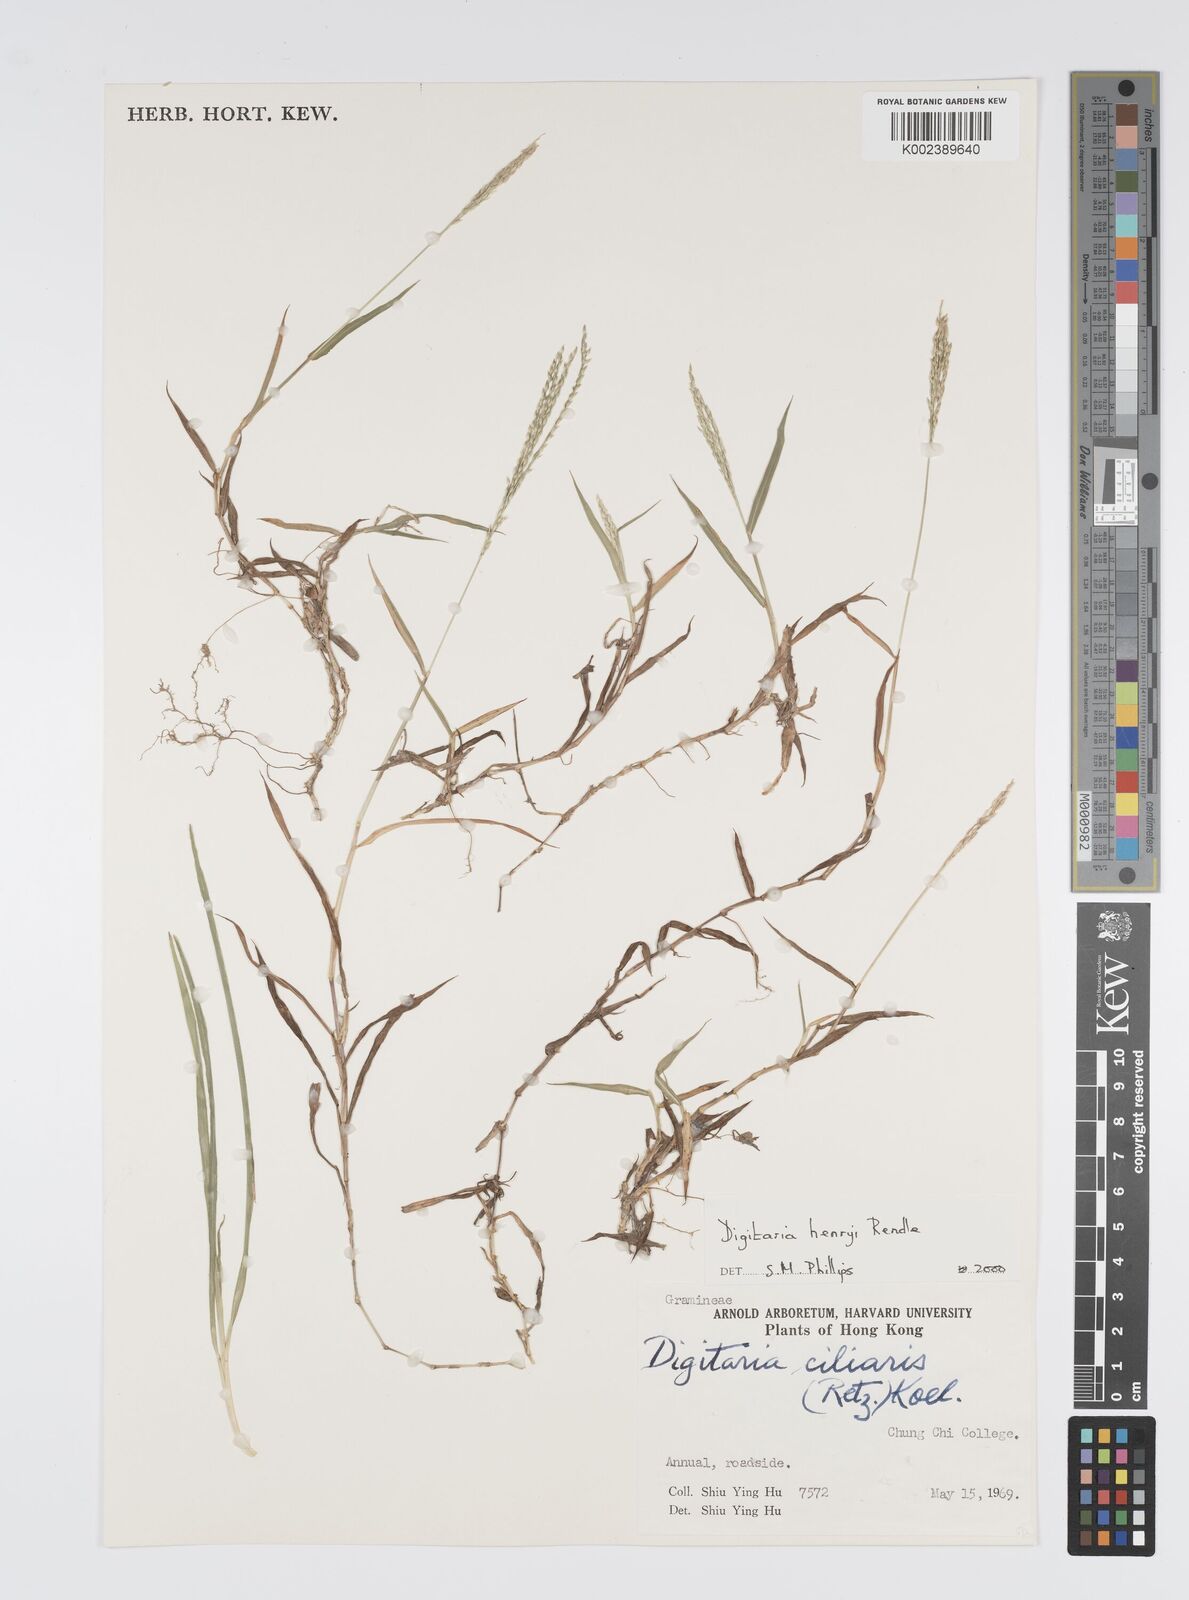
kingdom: Plantae
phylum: Tracheophyta
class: Liliopsida
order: Poales
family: Poaceae
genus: Digitaria
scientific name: Digitaria ciliaris
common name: Tropical finger-grass
